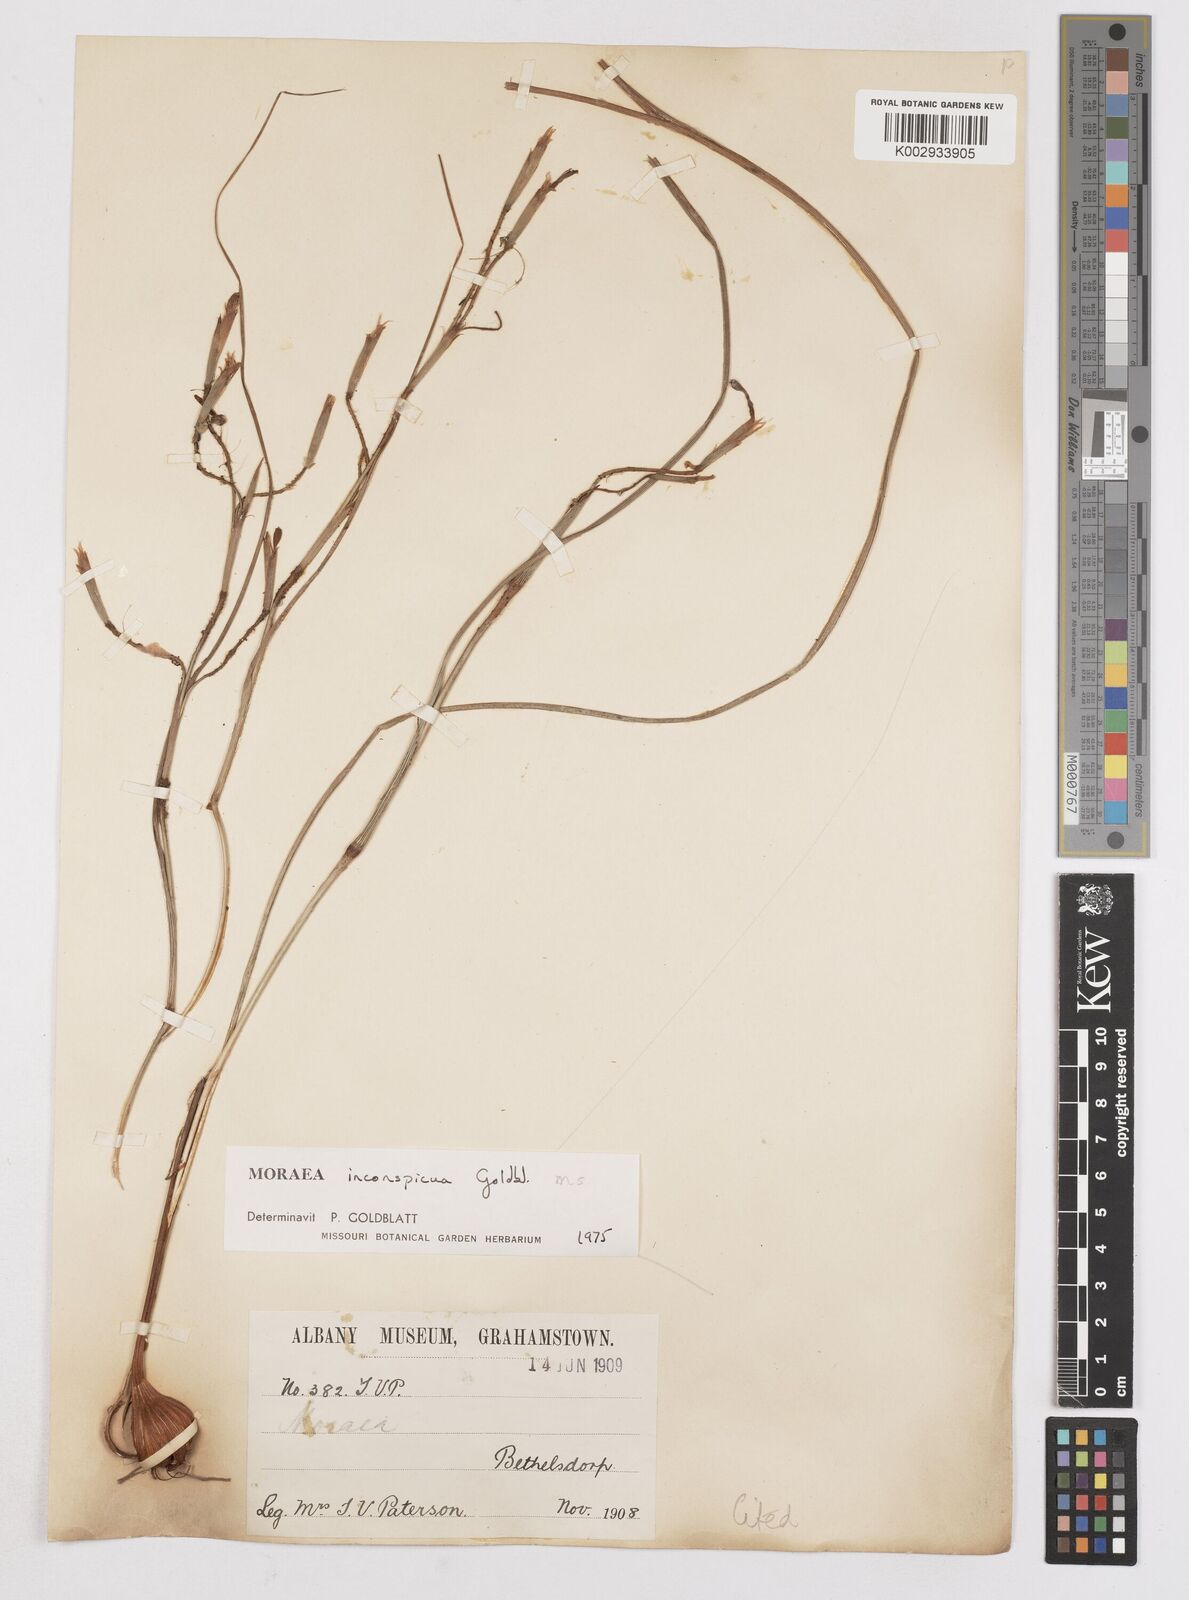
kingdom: Plantae
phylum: Tracheophyta
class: Liliopsida
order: Asparagales
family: Iridaceae
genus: Moraea
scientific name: Moraea inconspicua
